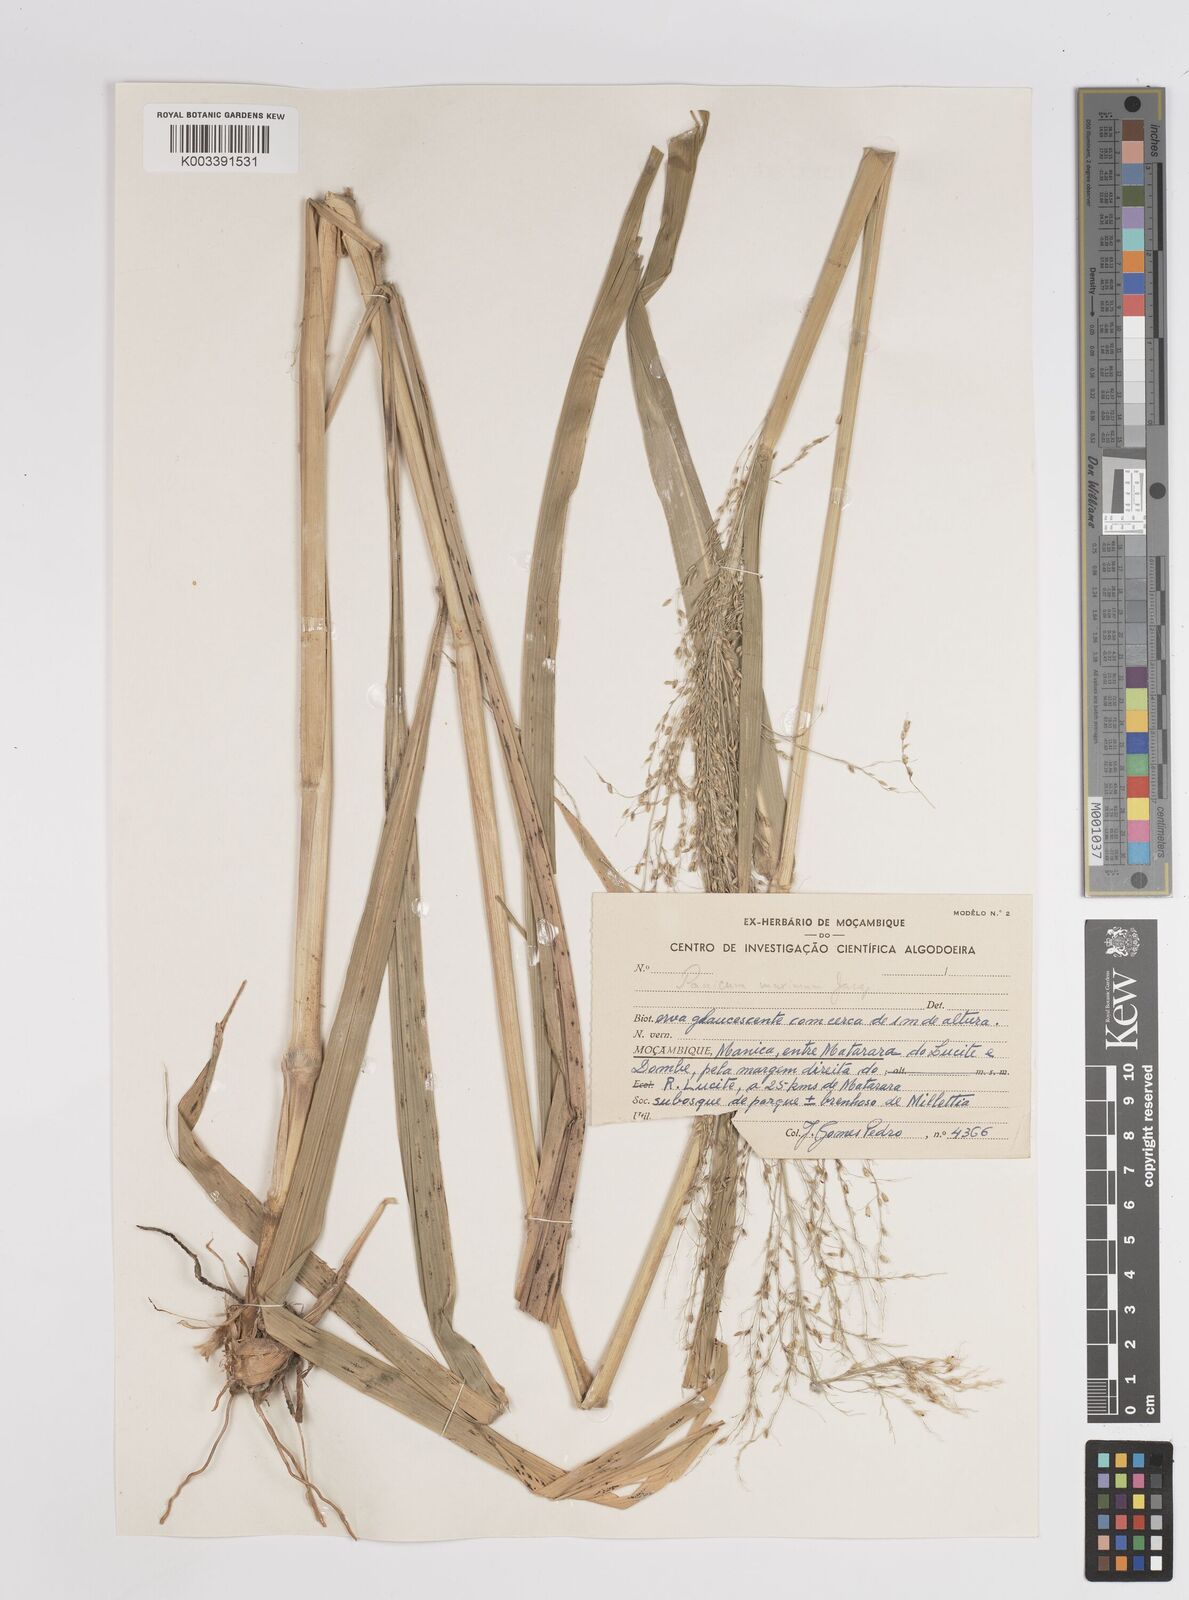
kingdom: Plantae
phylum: Tracheophyta
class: Liliopsida
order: Poales
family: Poaceae
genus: Megathyrsus
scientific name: Megathyrsus maximus
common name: Guineagrass
